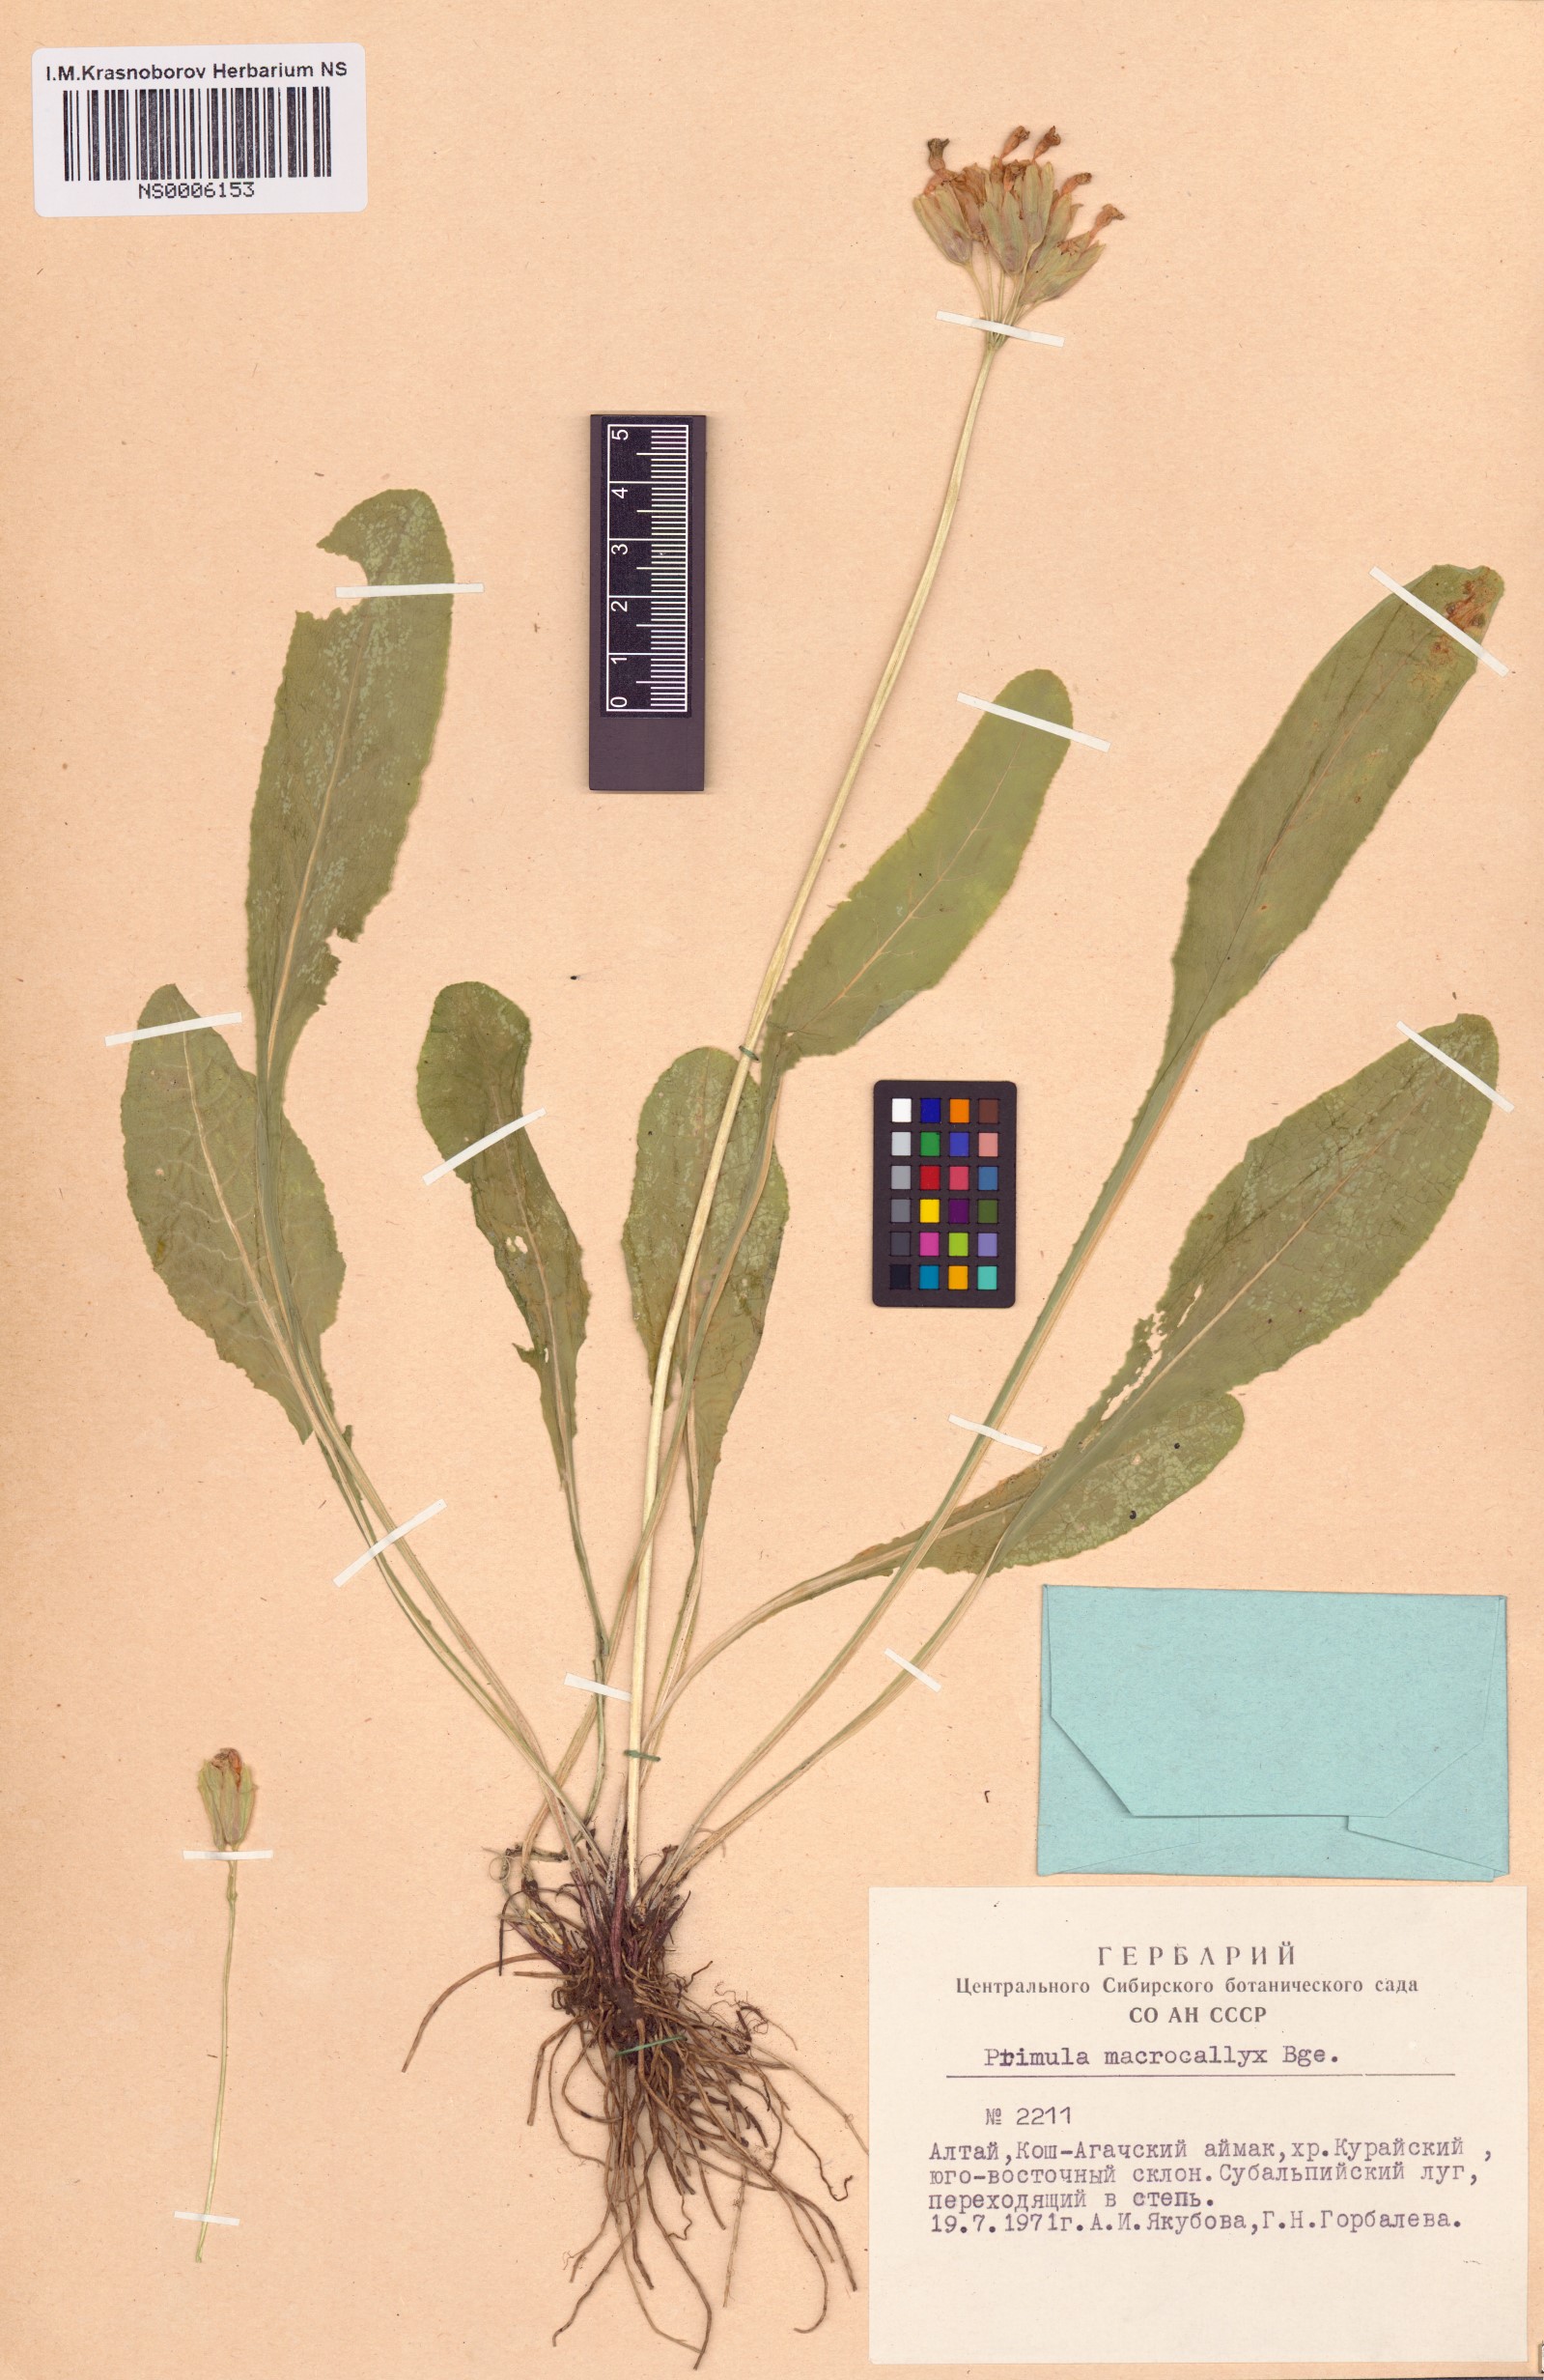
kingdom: Plantae
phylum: Tracheophyta
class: Magnoliopsida
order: Ericales
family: Primulaceae
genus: Primula
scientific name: Primula veris
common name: Cowslip
